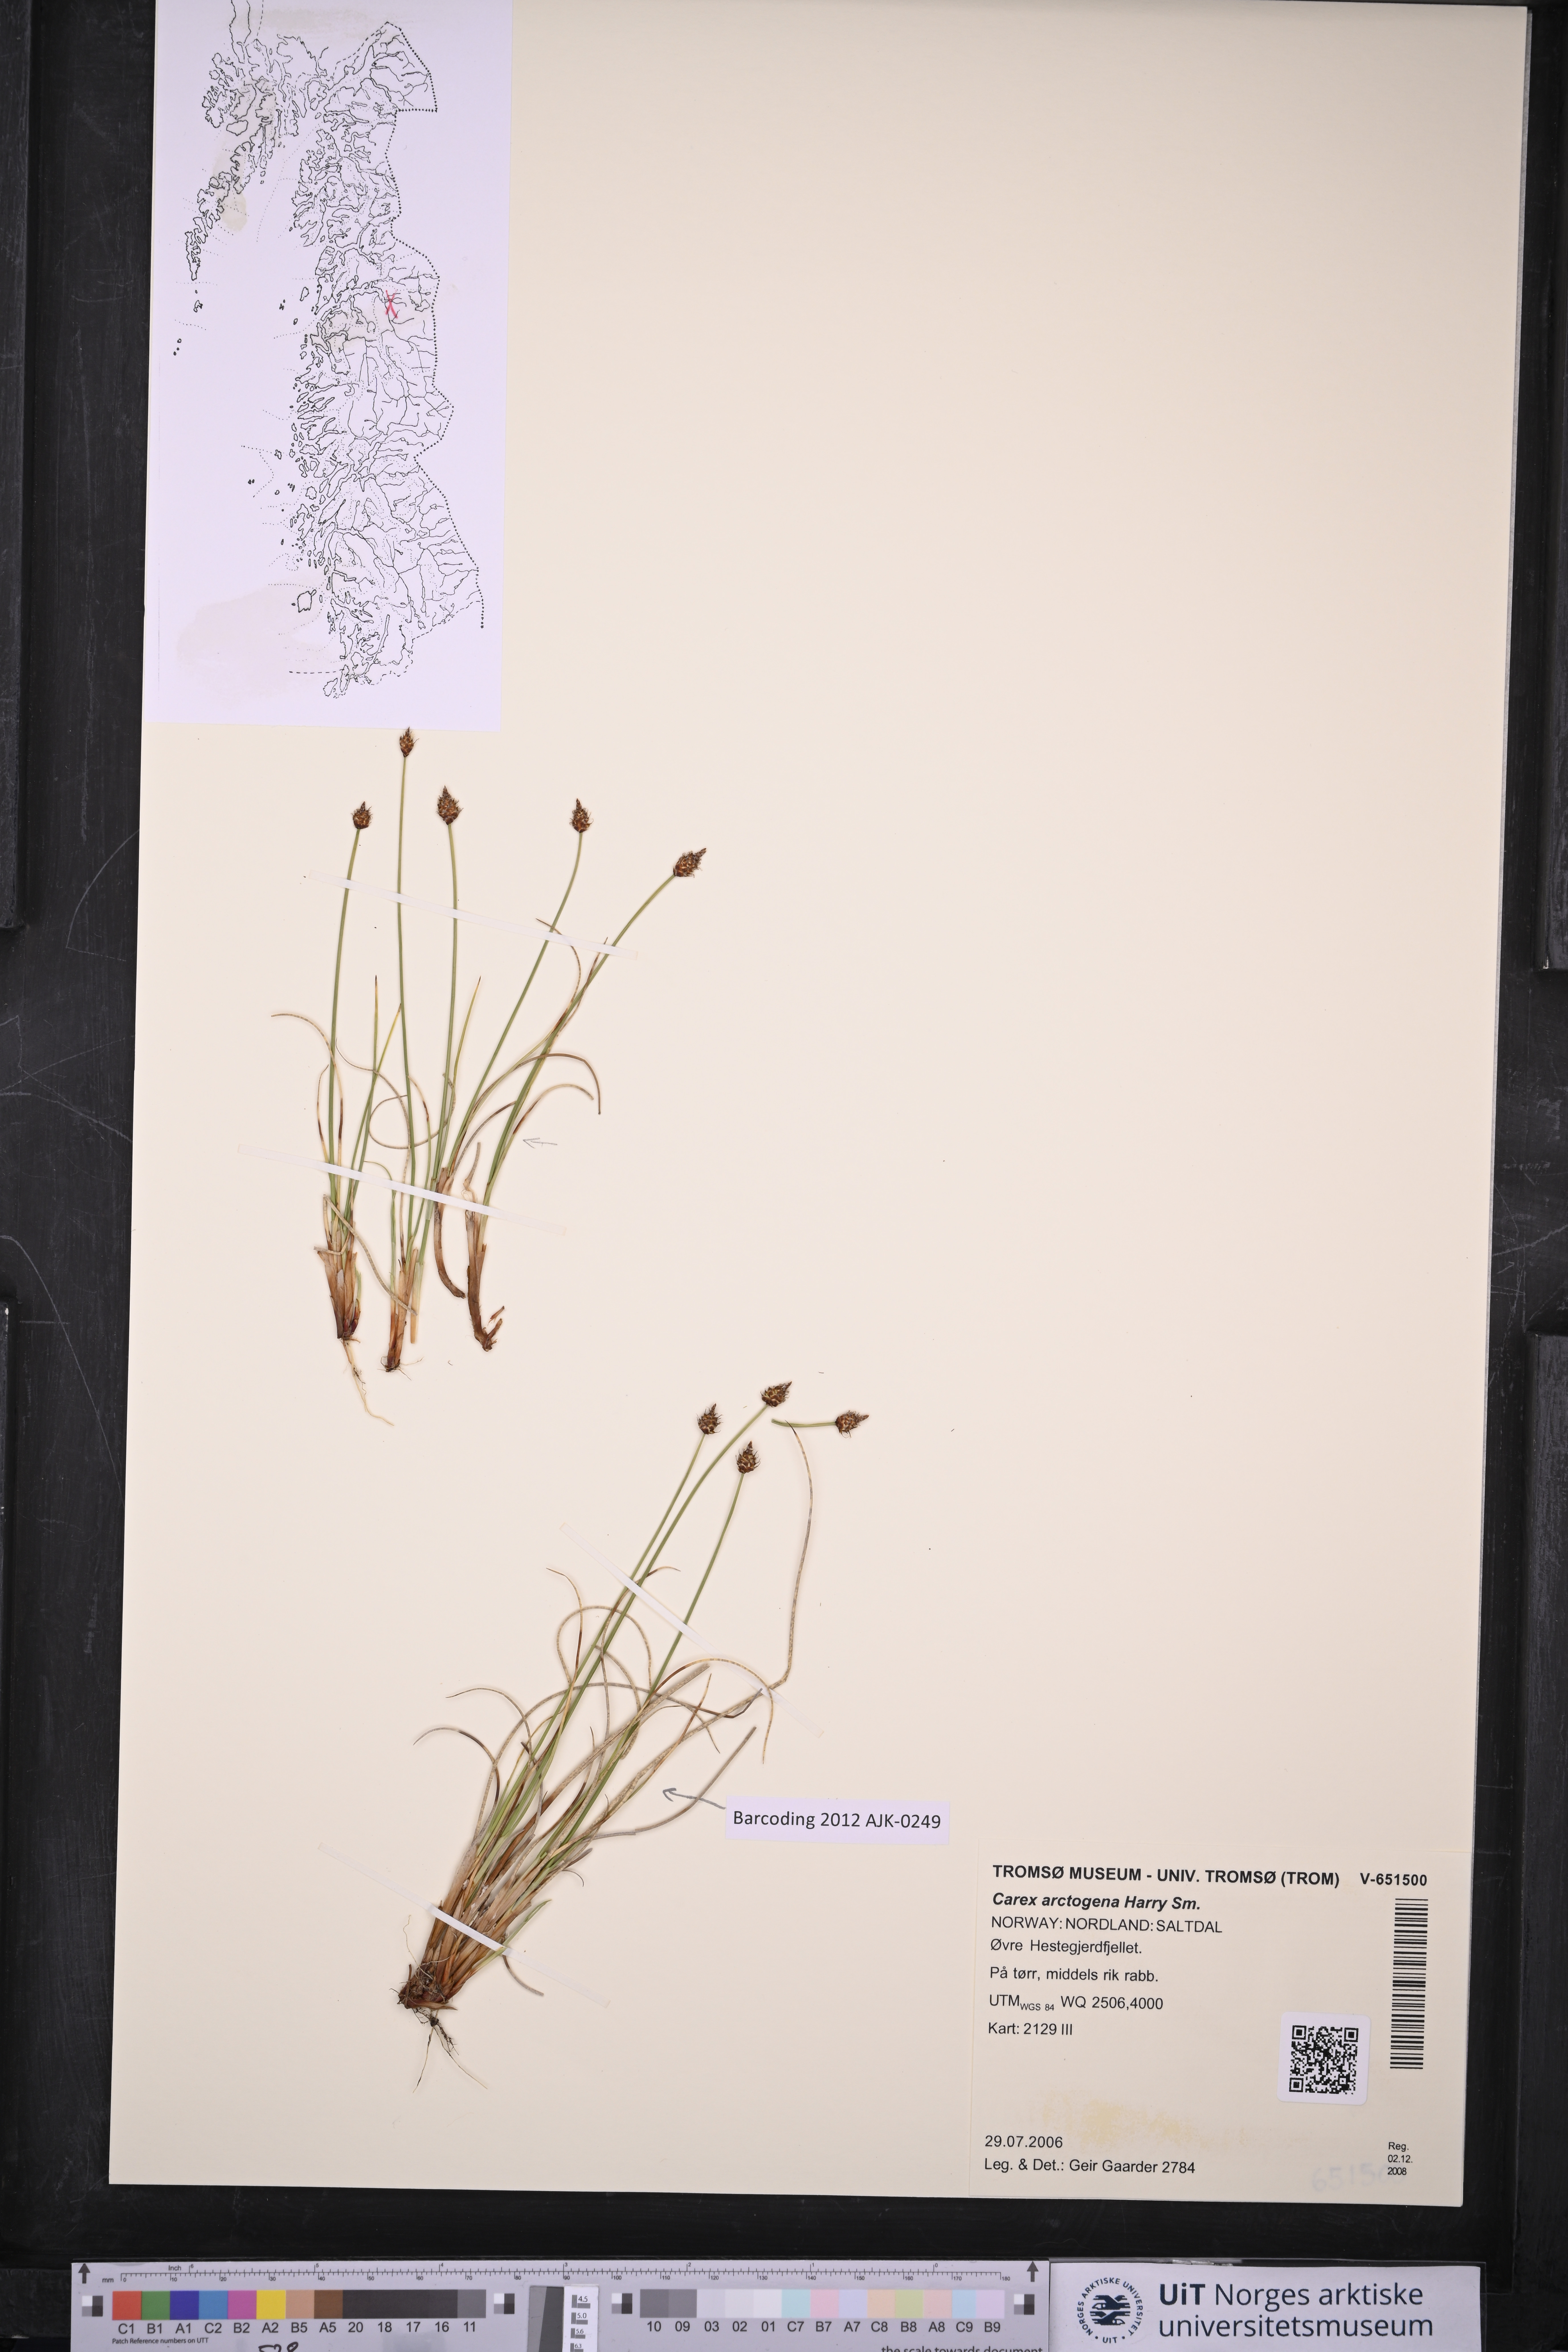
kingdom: Plantae
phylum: Tracheophyta
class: Liliopsida
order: Poales
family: Cyperaceae
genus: Carex
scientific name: Carex arctogena
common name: Black sedge
